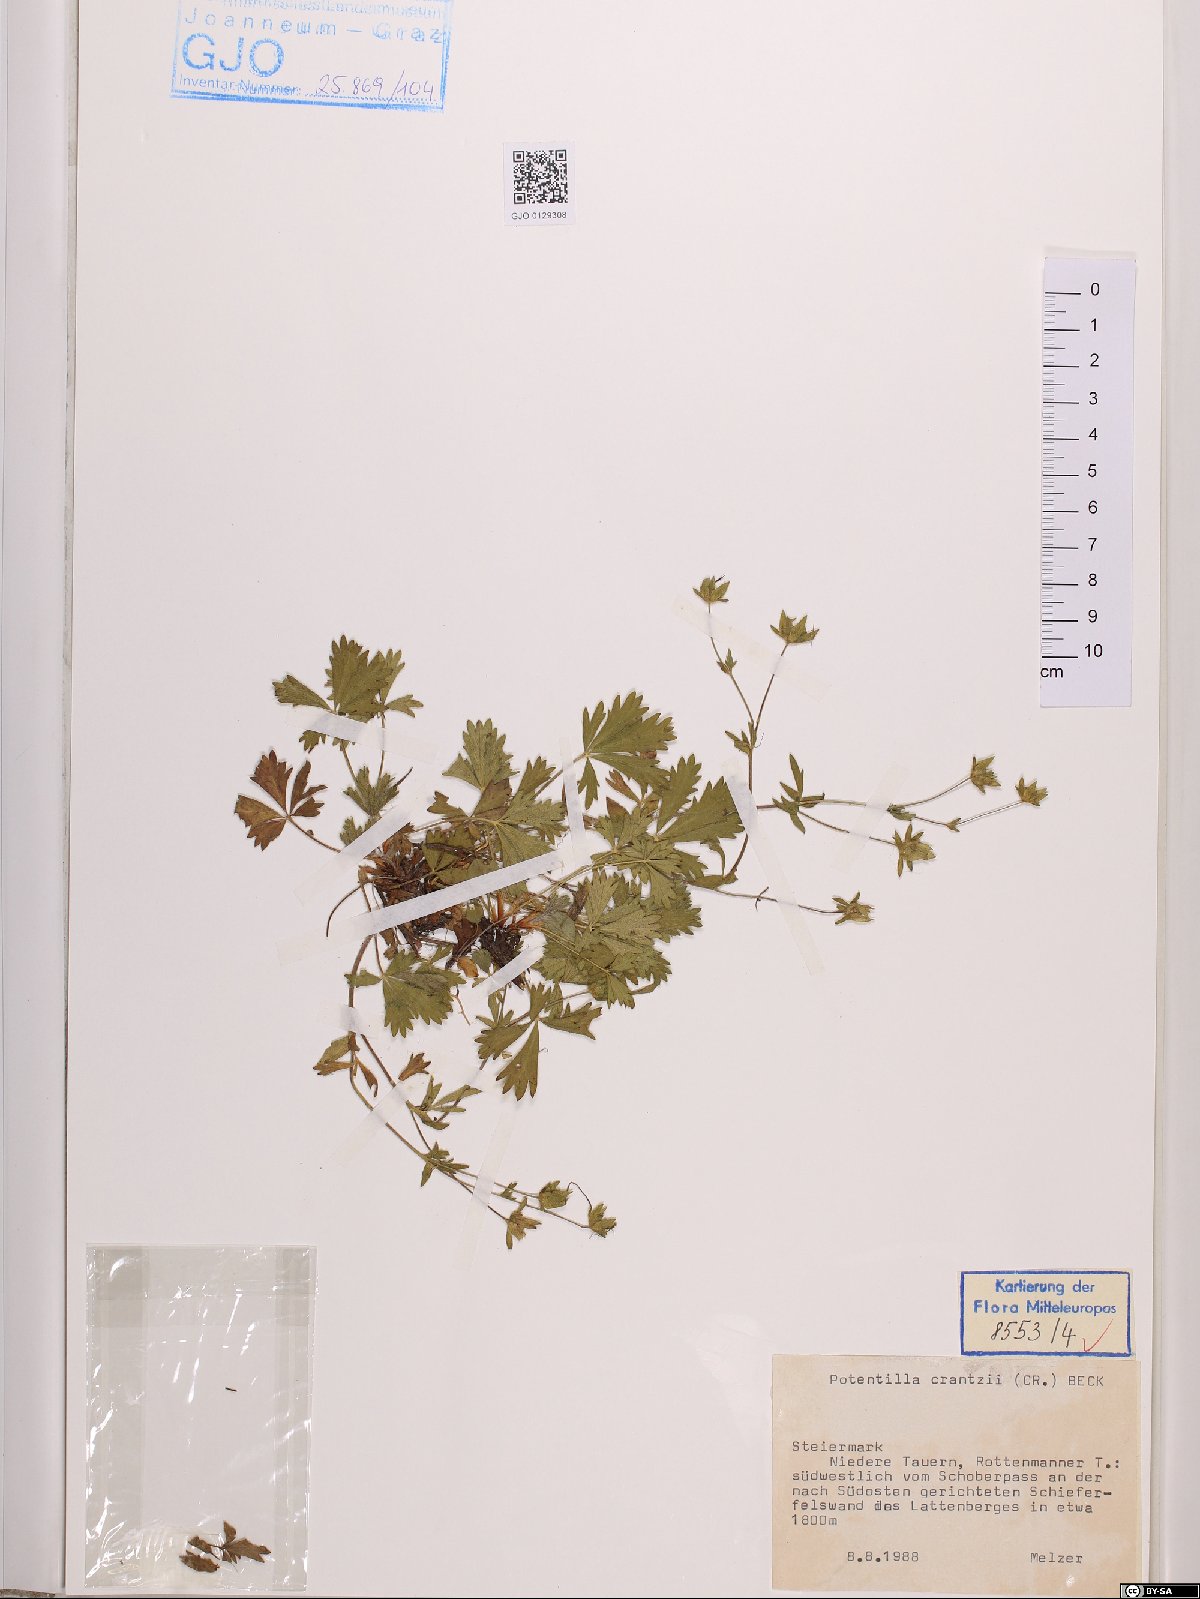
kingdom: Plantae
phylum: Tracheophyta
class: Magnoliopsida
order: Rosales
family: Rosaceae
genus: Potentilla
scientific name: Potentilla crantzii
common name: Alpine cinquefoil
